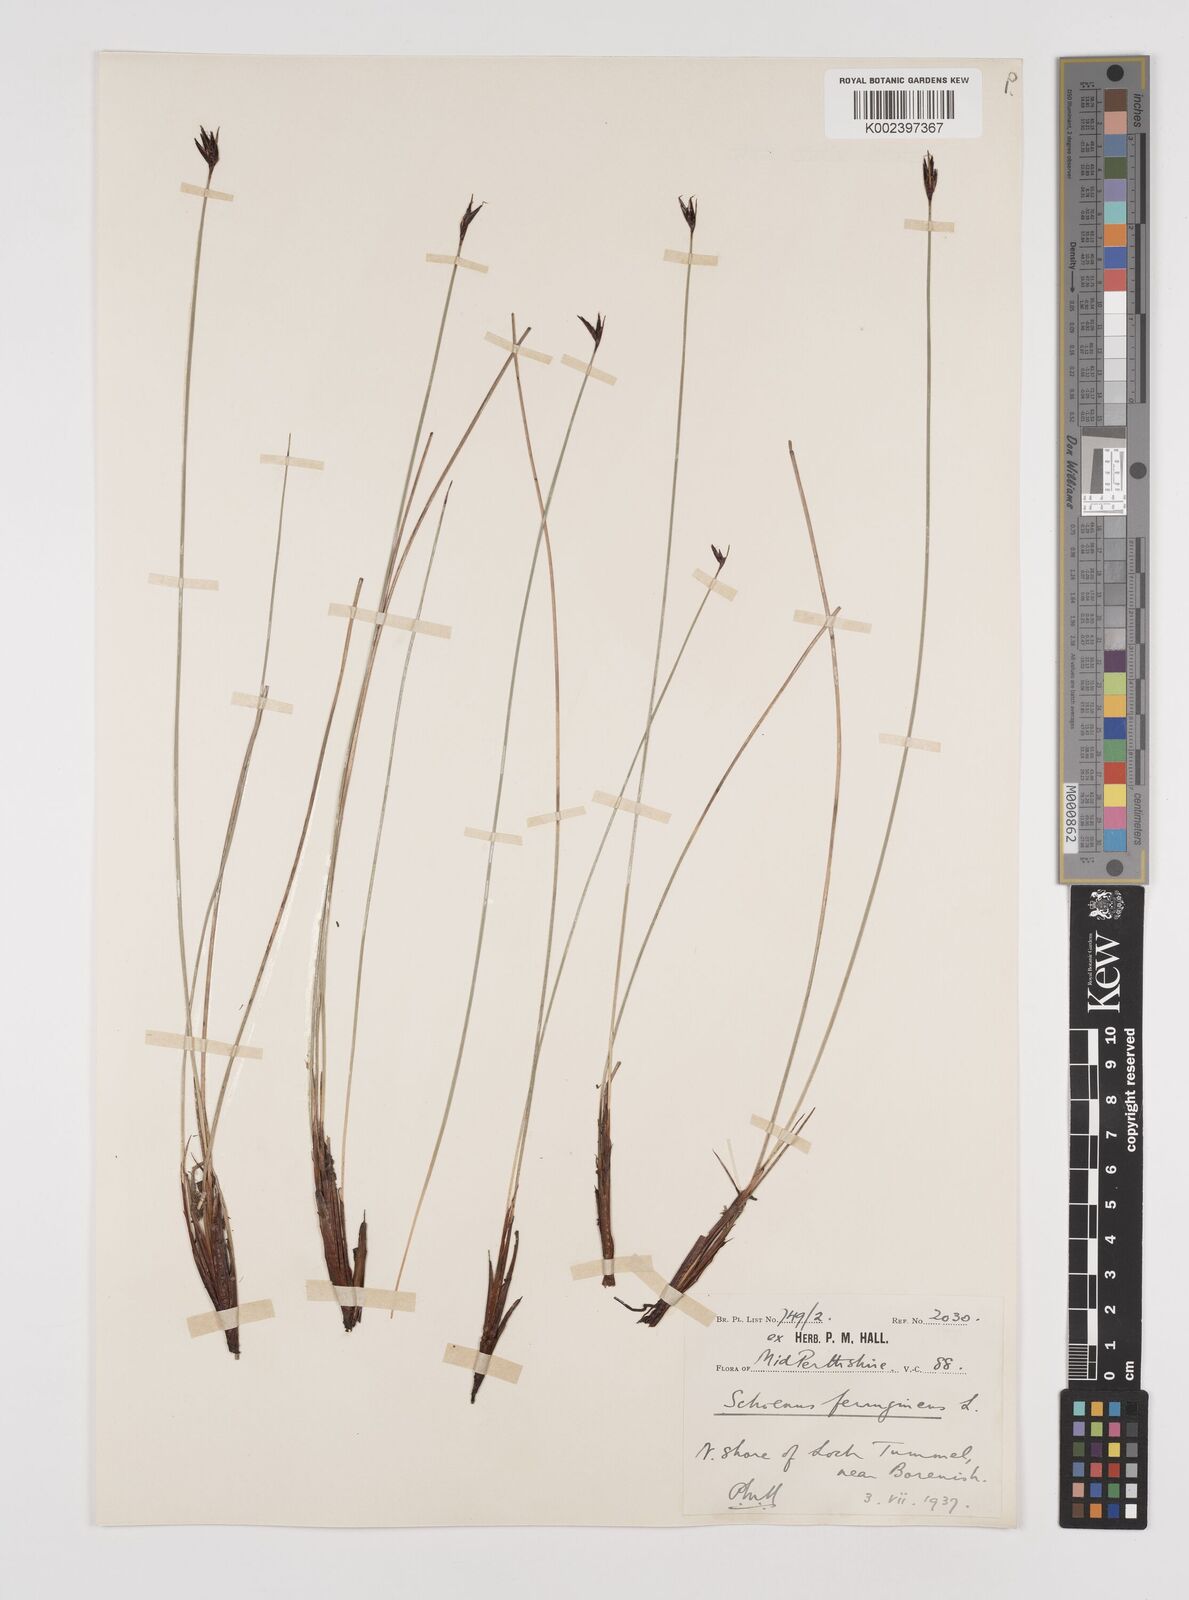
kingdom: Plantae
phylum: Tracheophyta
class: Liliopsida
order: Poales
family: Cyperaceae
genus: Schoenus
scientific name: Schoenus ferrugineus
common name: Brown bog-rush
